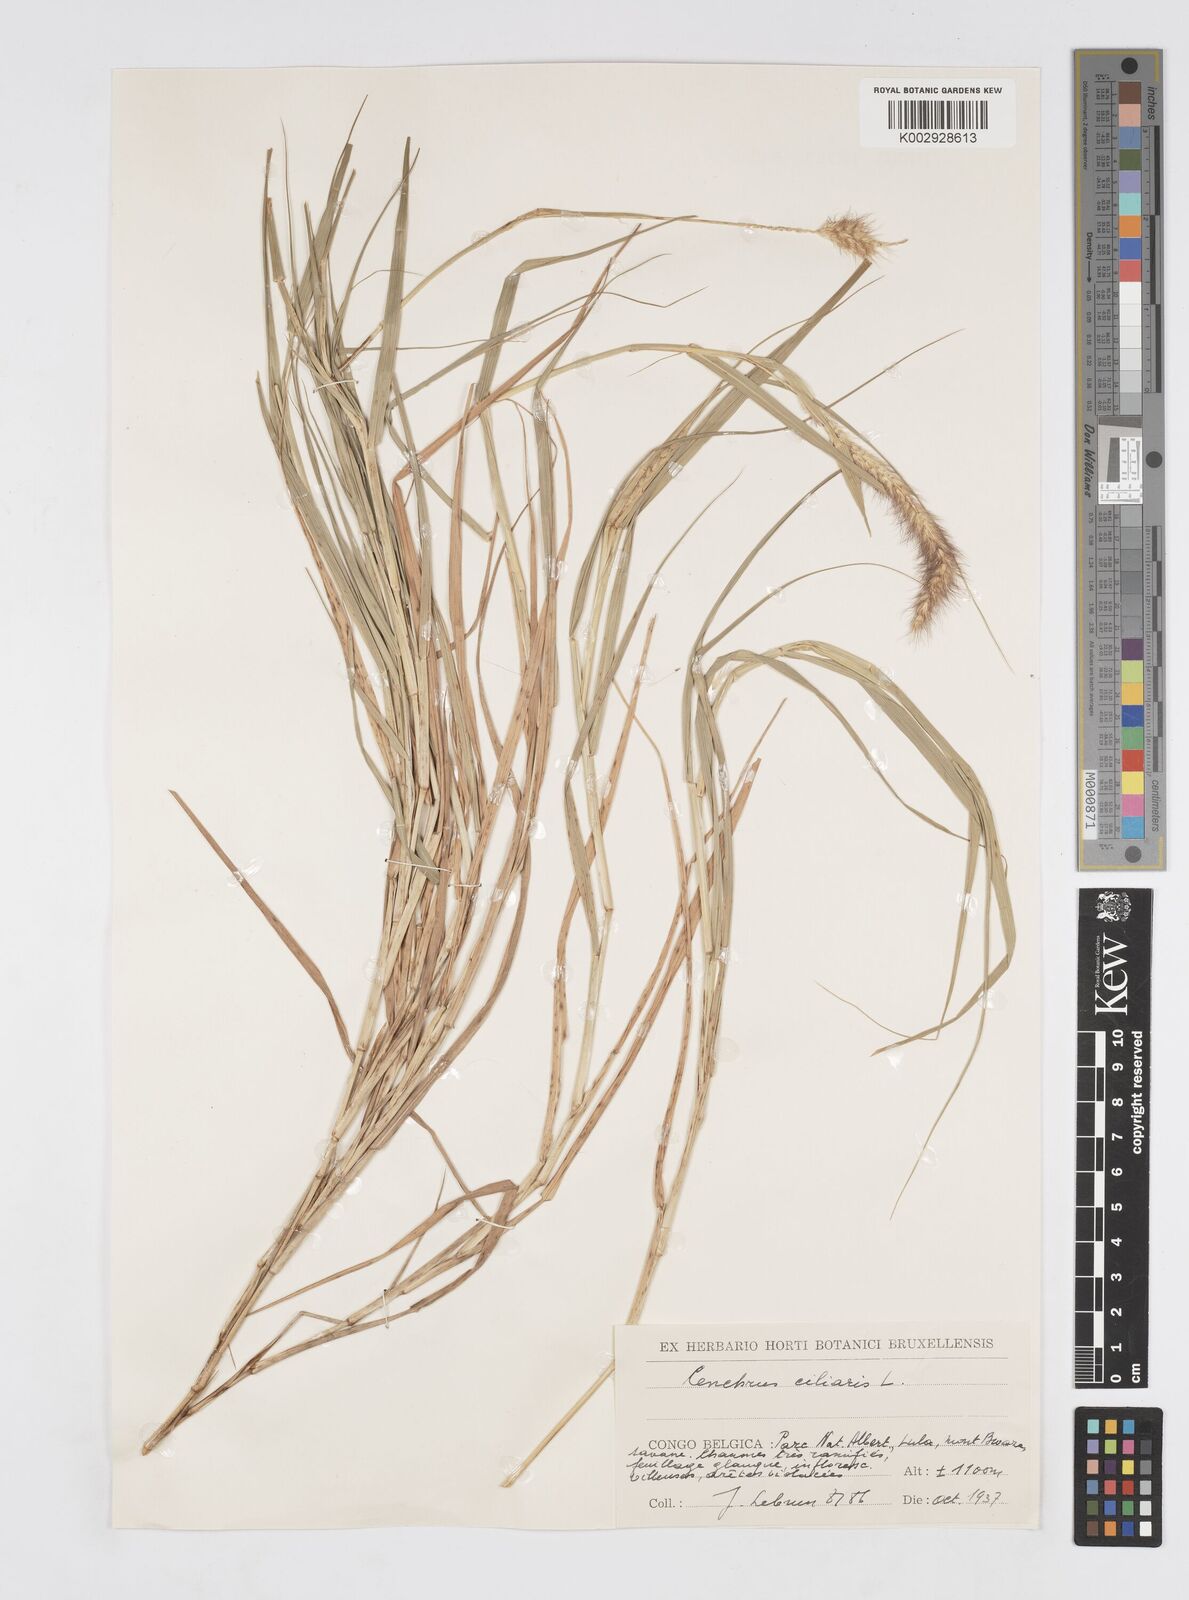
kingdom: Plantae
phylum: Tracheophyta
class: Liliopsida
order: Poales
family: Poaceae
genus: Cenchrus
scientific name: Cenchrus ciliaris
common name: Buffelgrass
